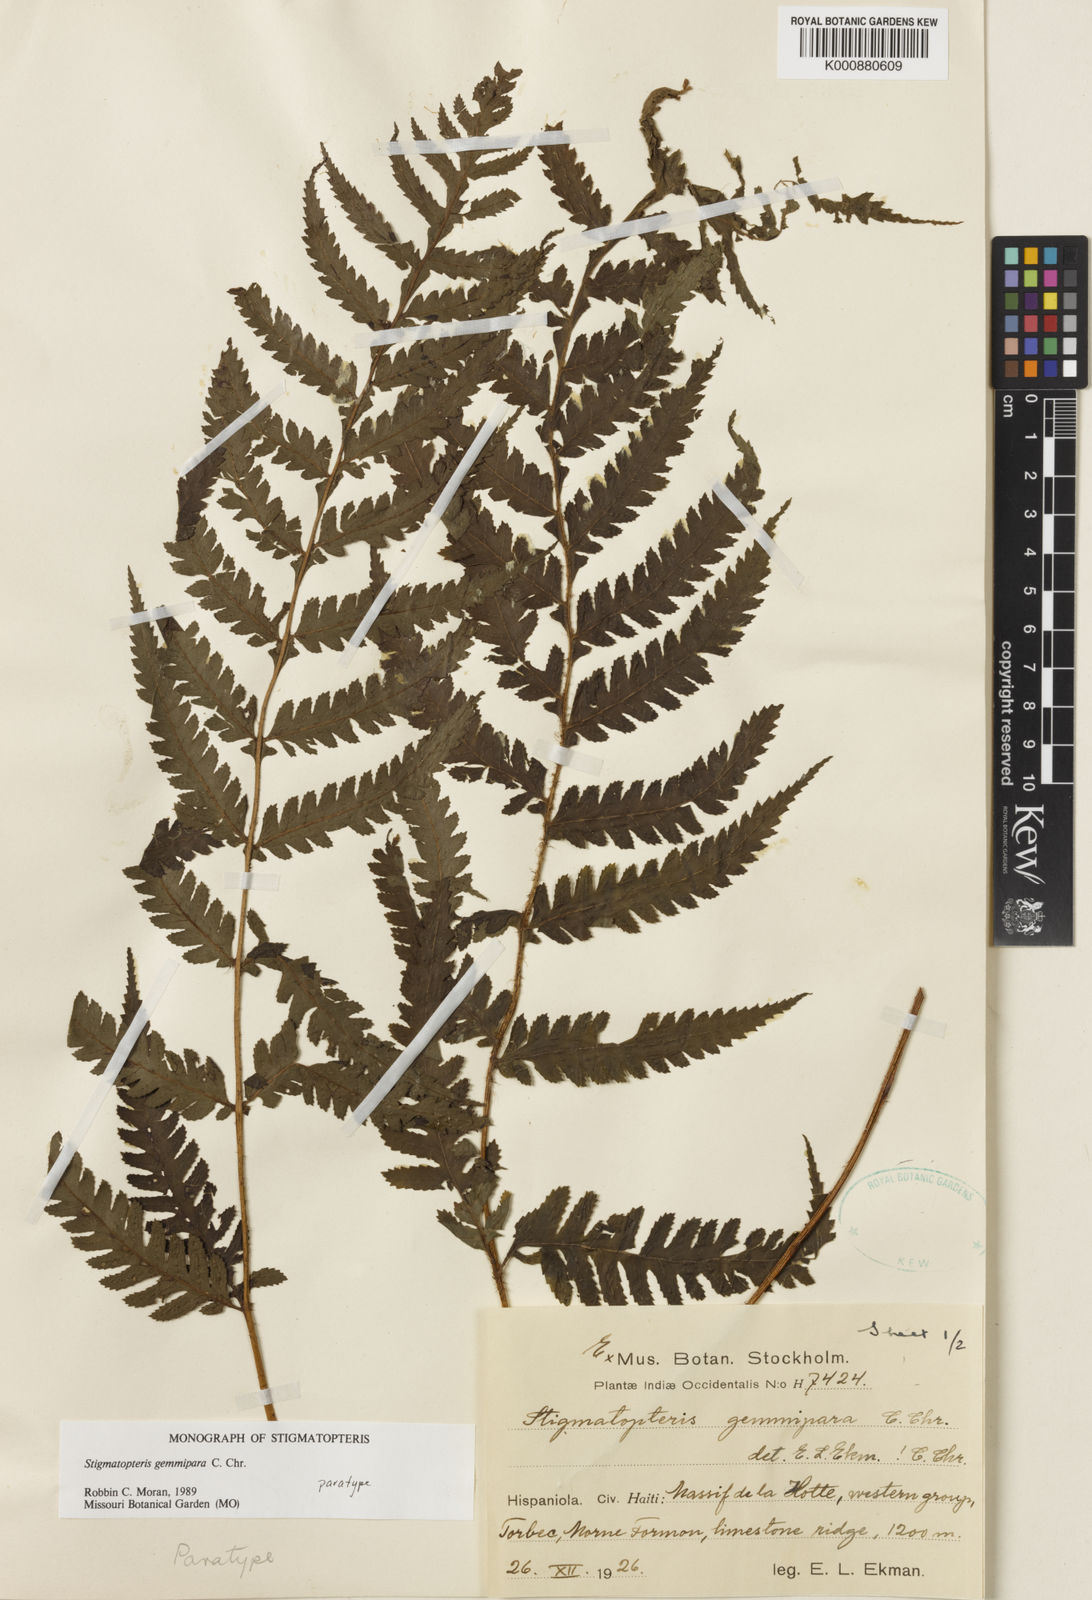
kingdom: Plantae
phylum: Tracheophyta
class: Polypodiopsida
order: Polypodiales
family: Dryopteridaceae
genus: Stigmatopteris
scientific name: Stigmatopteris gemmipara
